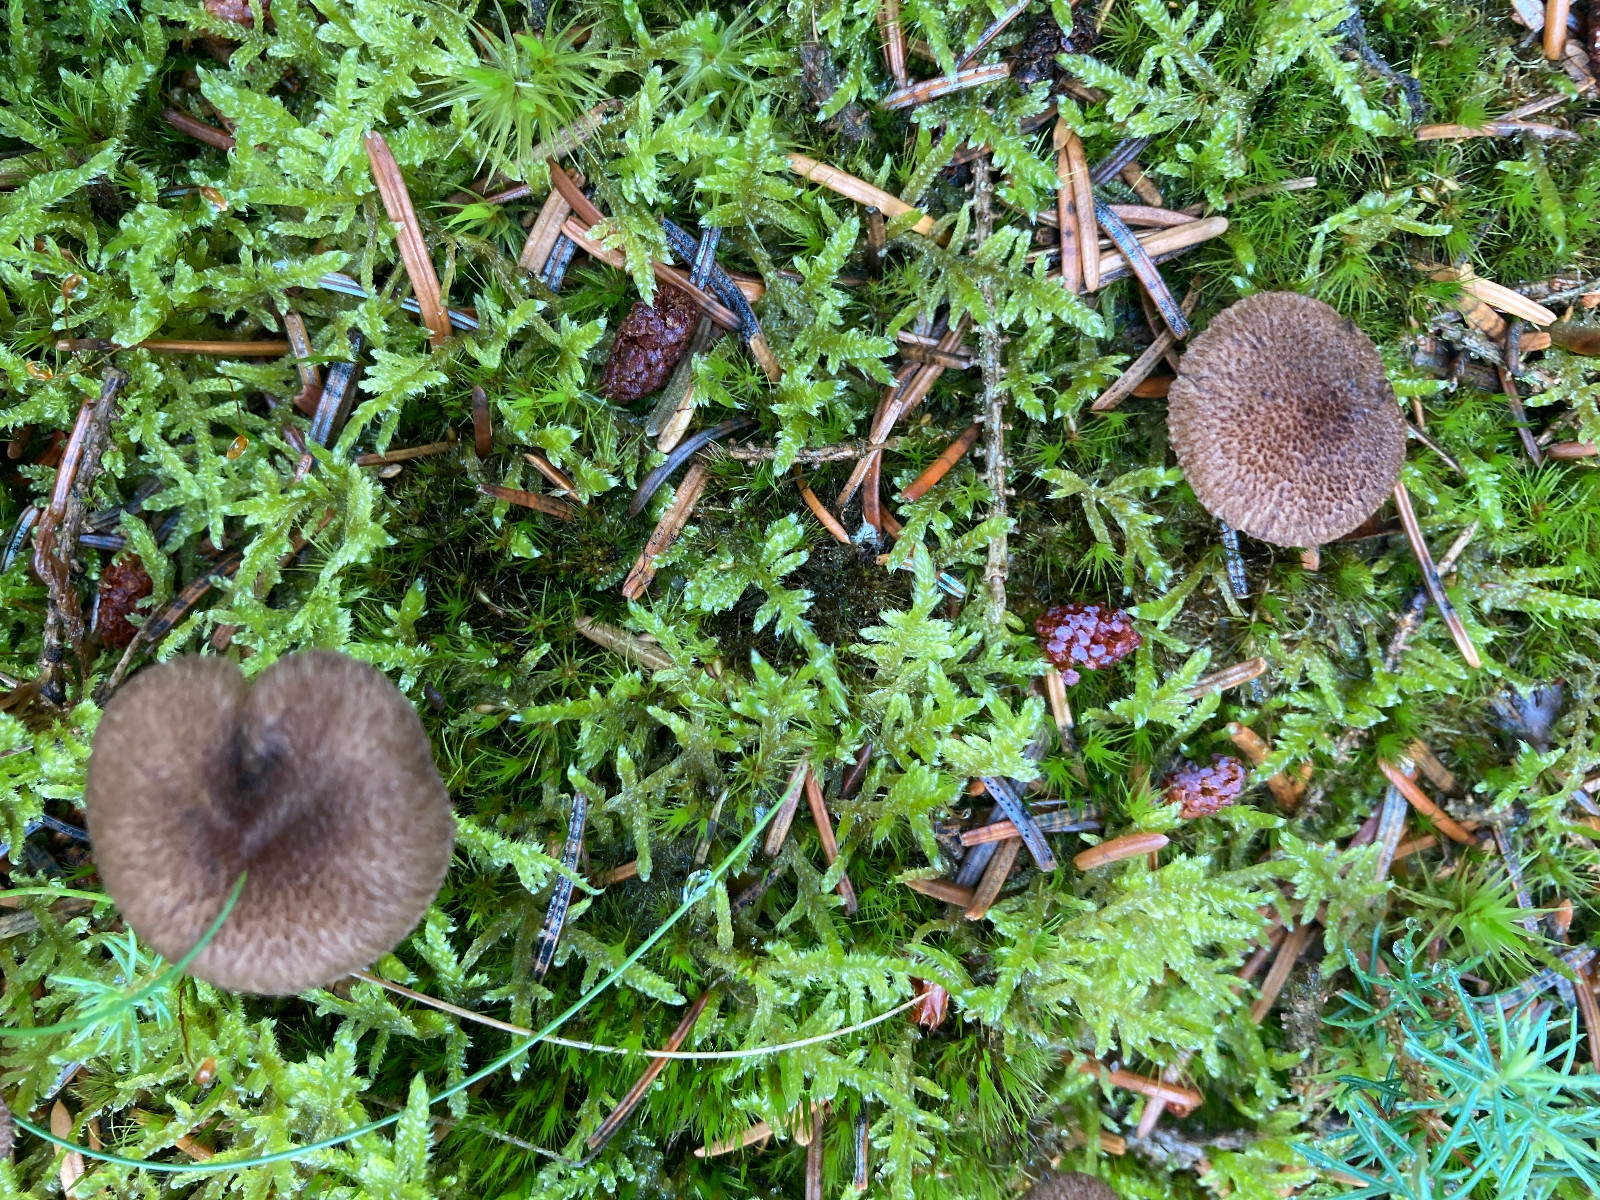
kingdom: Fungi
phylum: Basidiomycota
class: Agaricomycetes
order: Agaricales
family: Inocybaceae
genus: Inocybe
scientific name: Inocybe lanuginosa
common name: uldskællet trævlhat
